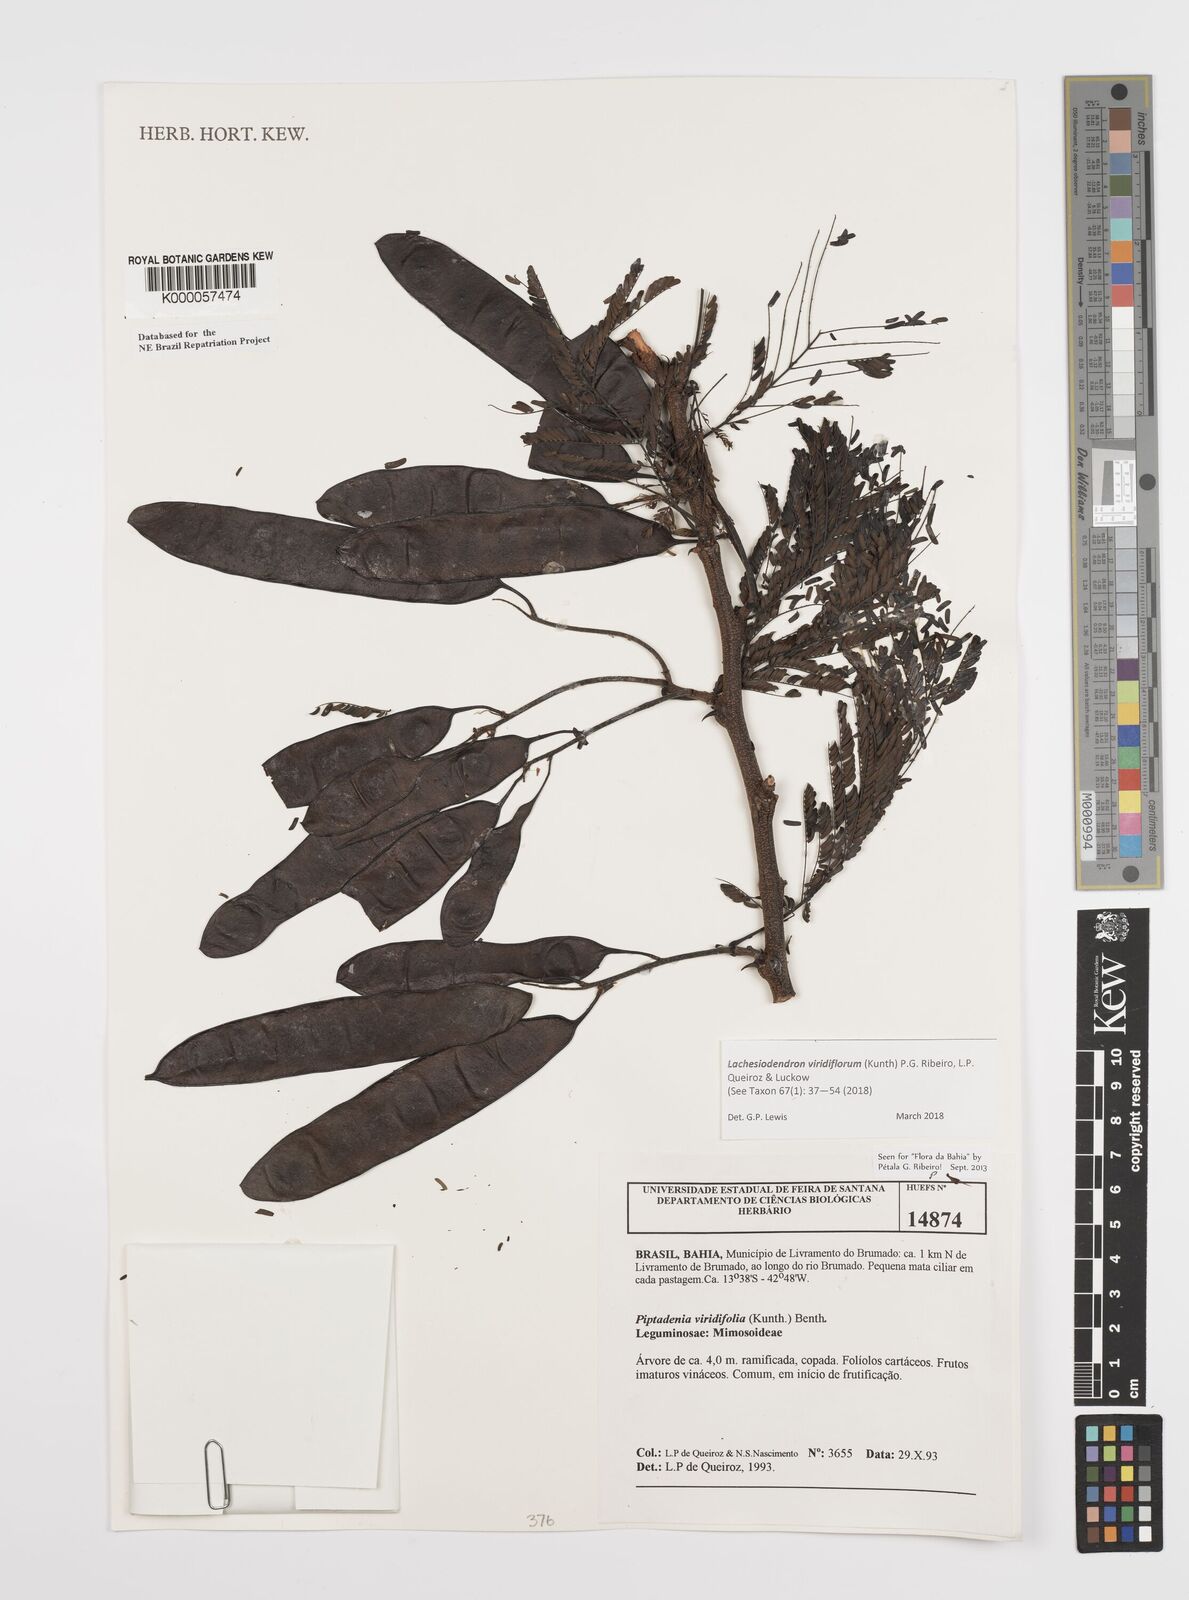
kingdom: Plantae
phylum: Tracheophyta
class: Magnoliopsida
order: Fabales
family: Fabaceae
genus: Lachesiodendron
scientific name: Lachesiodendron viridiflorum
